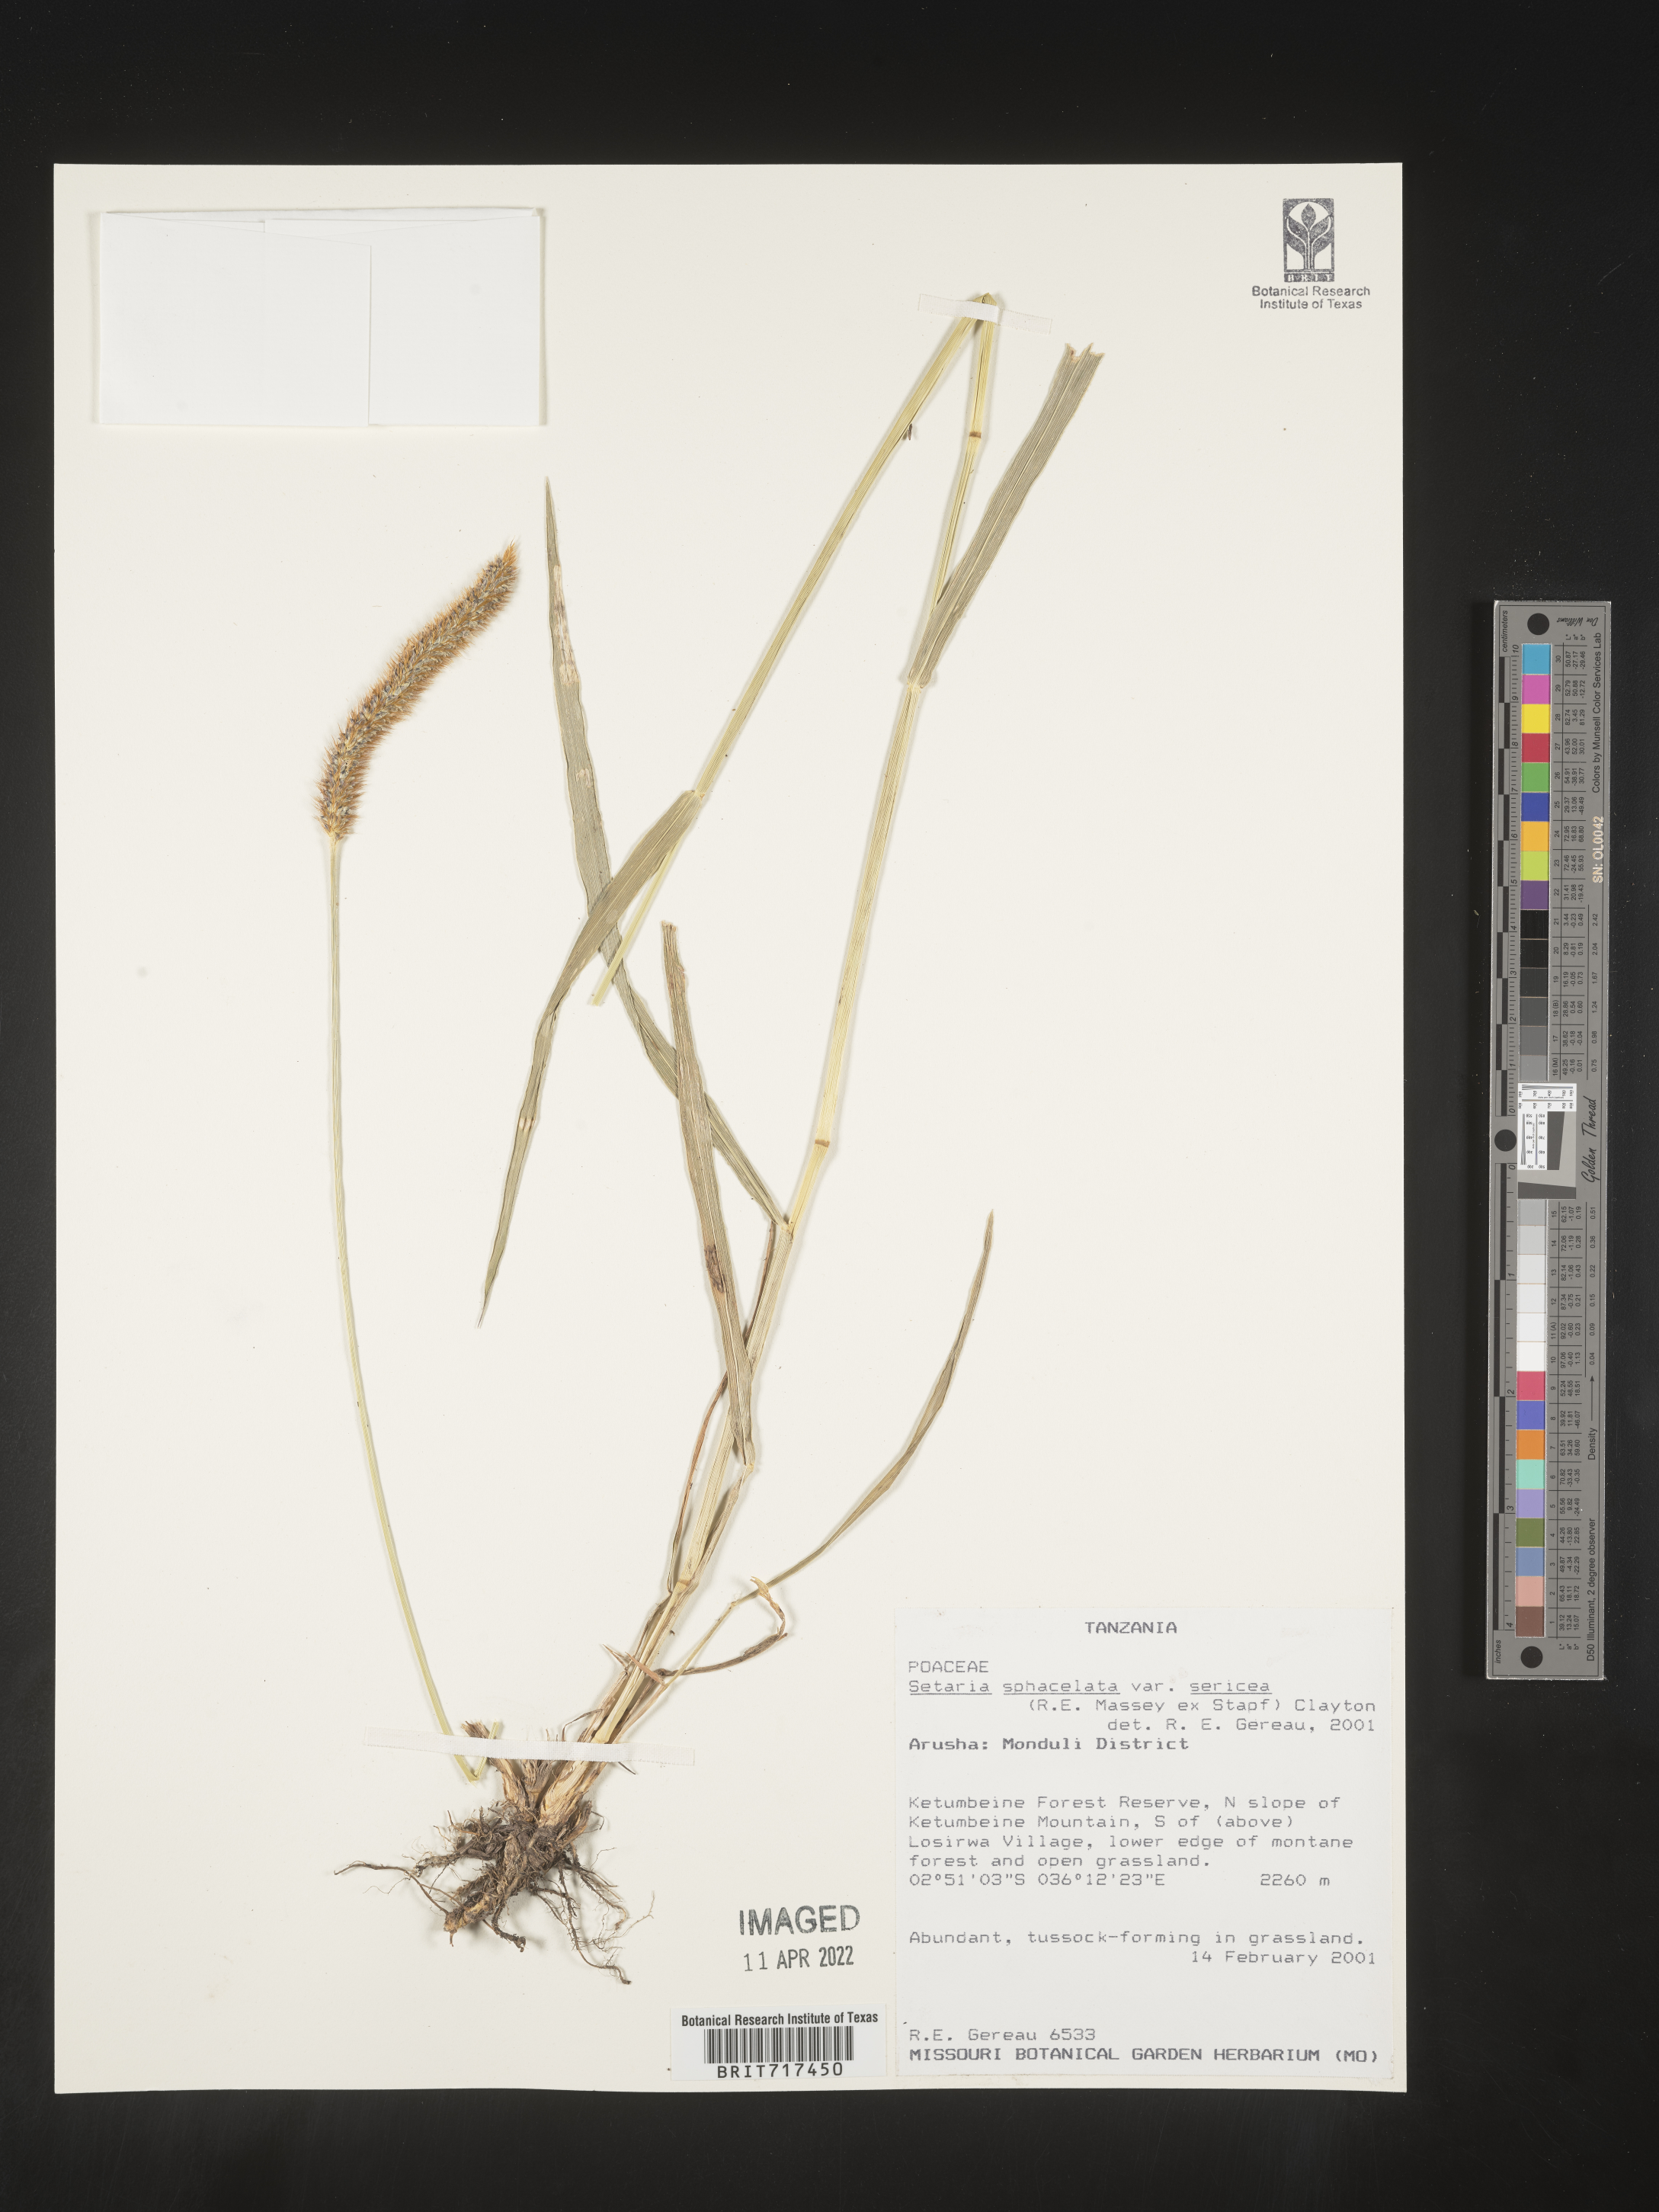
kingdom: Plantae
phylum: Tracheophyta
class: Liliopsida
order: Poales
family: Poaceae
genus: Setaria
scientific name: Setaria
